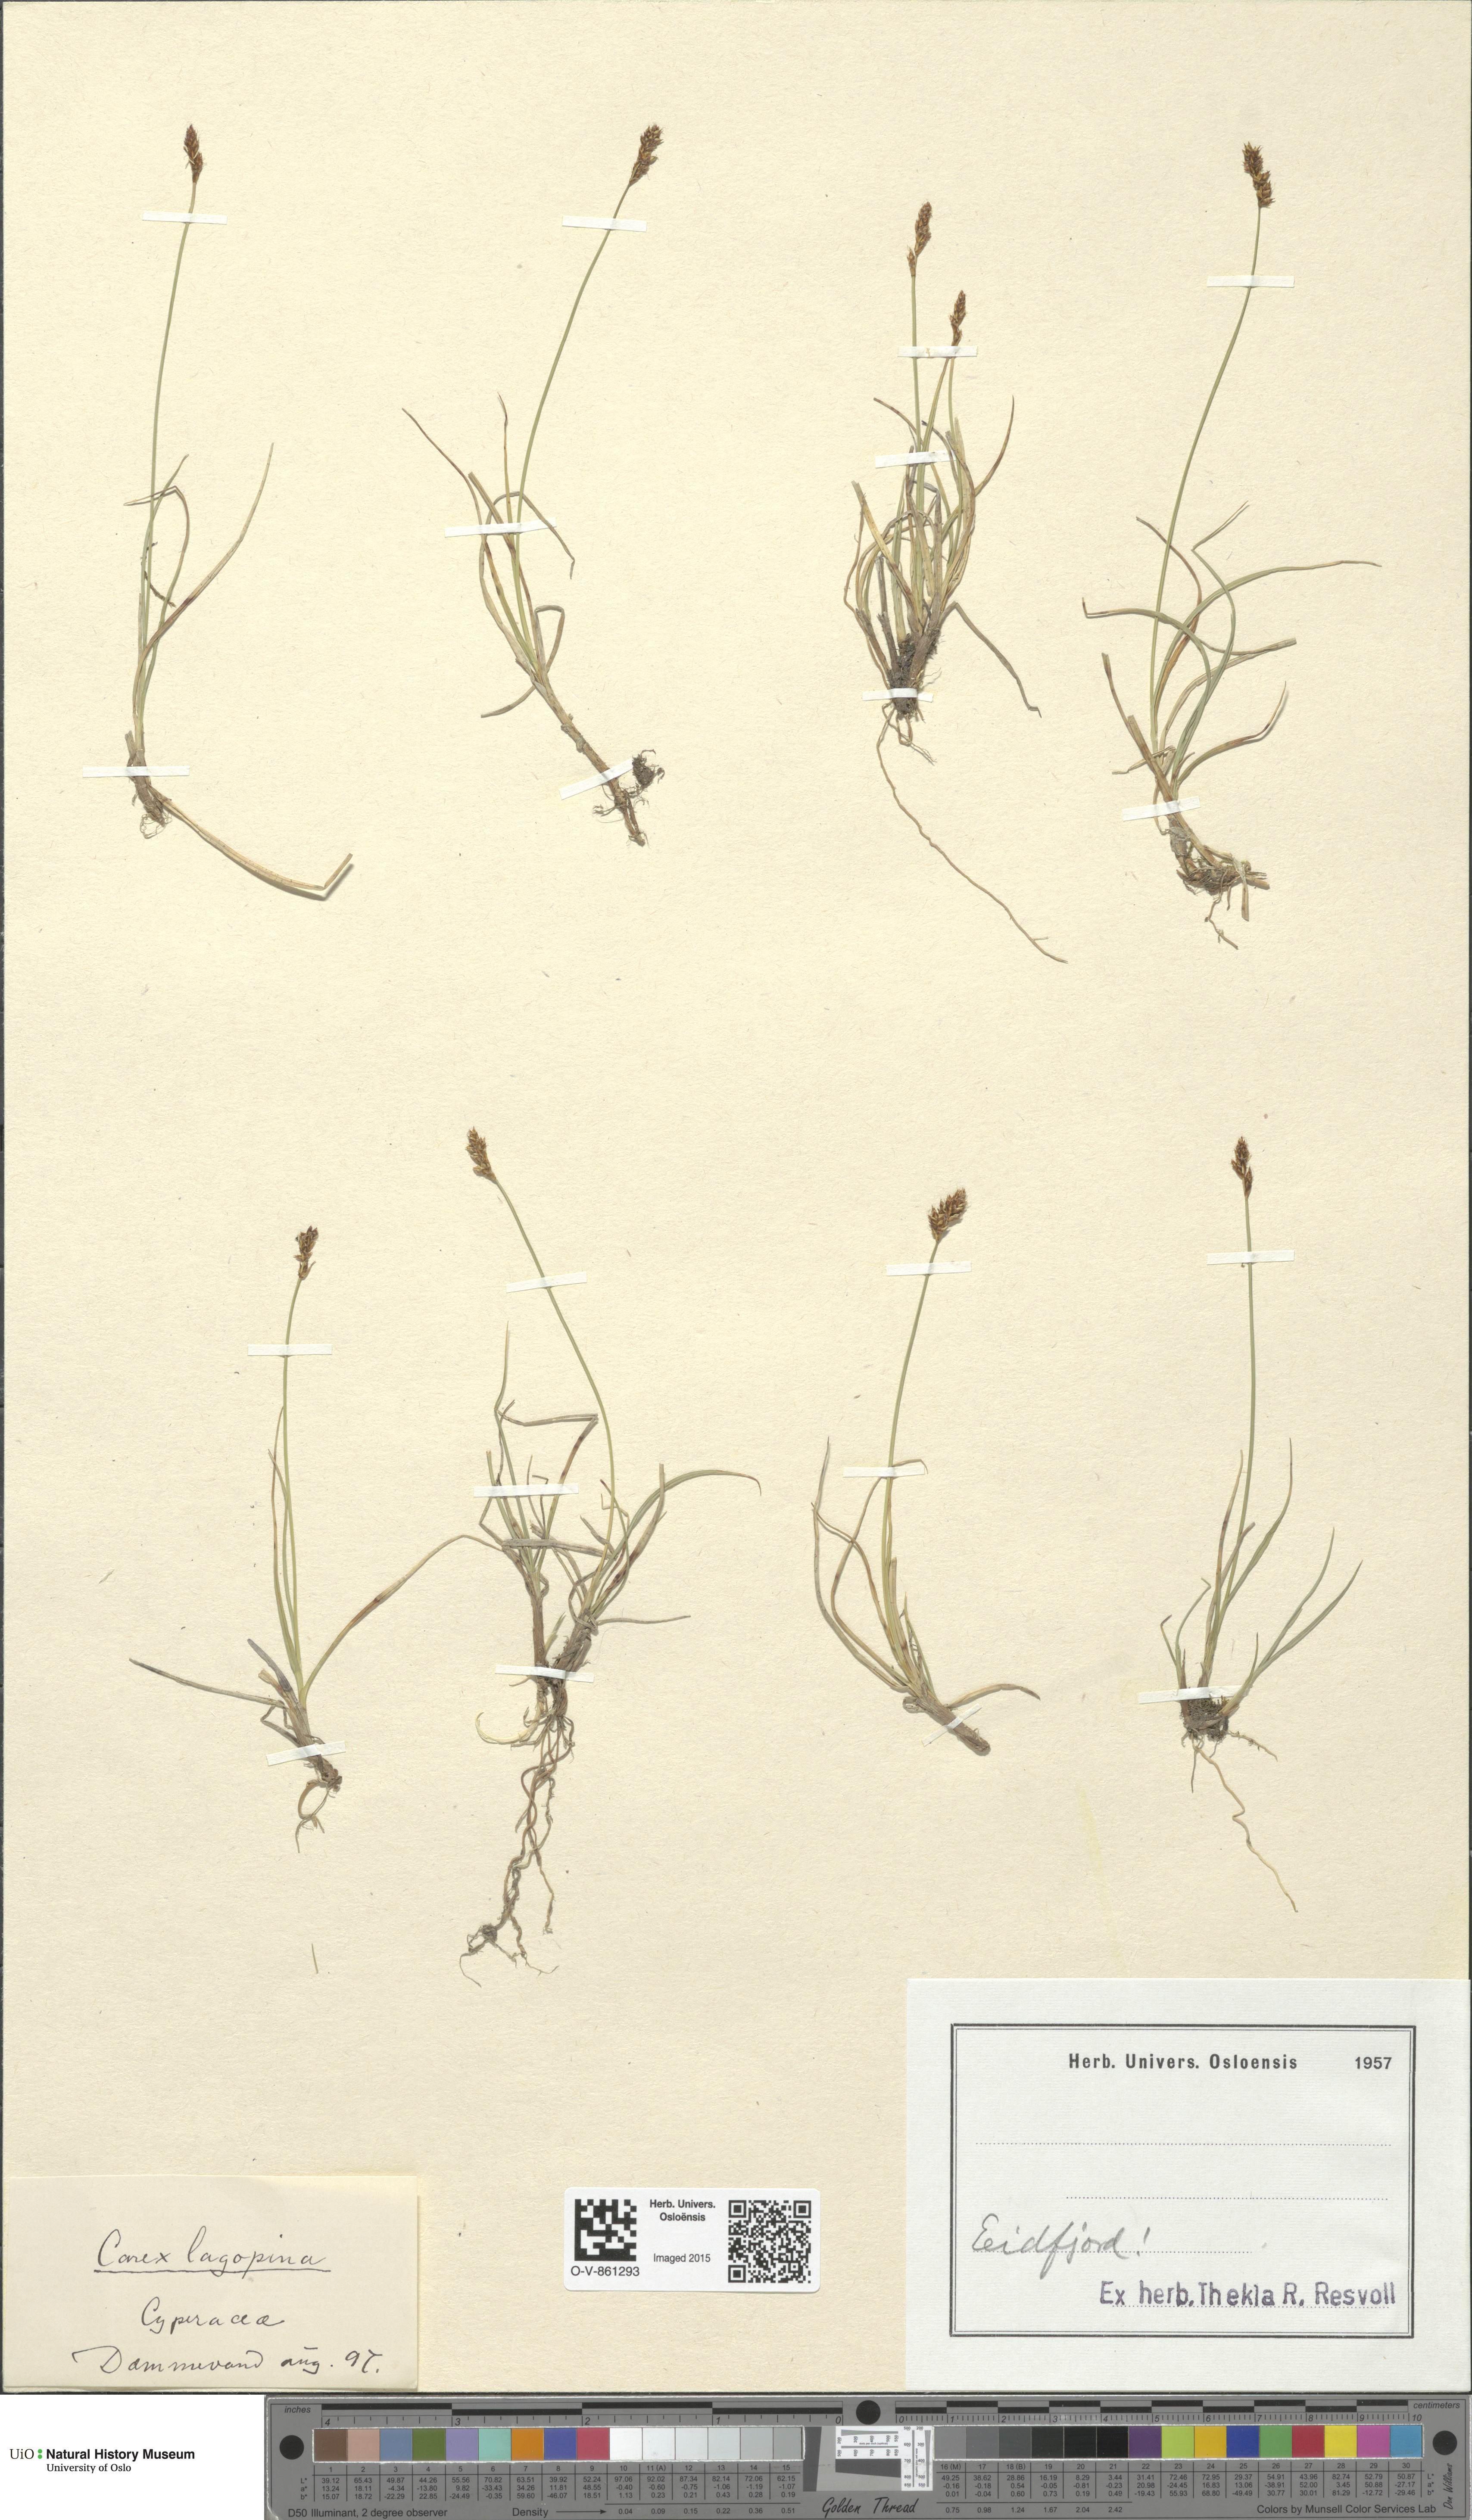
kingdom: Plantae
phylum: Tracheophyta
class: Liliopsida
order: Poales
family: Cyperaceae
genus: Carex
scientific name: Carex lachenalii
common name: Hare's-foot sedge
